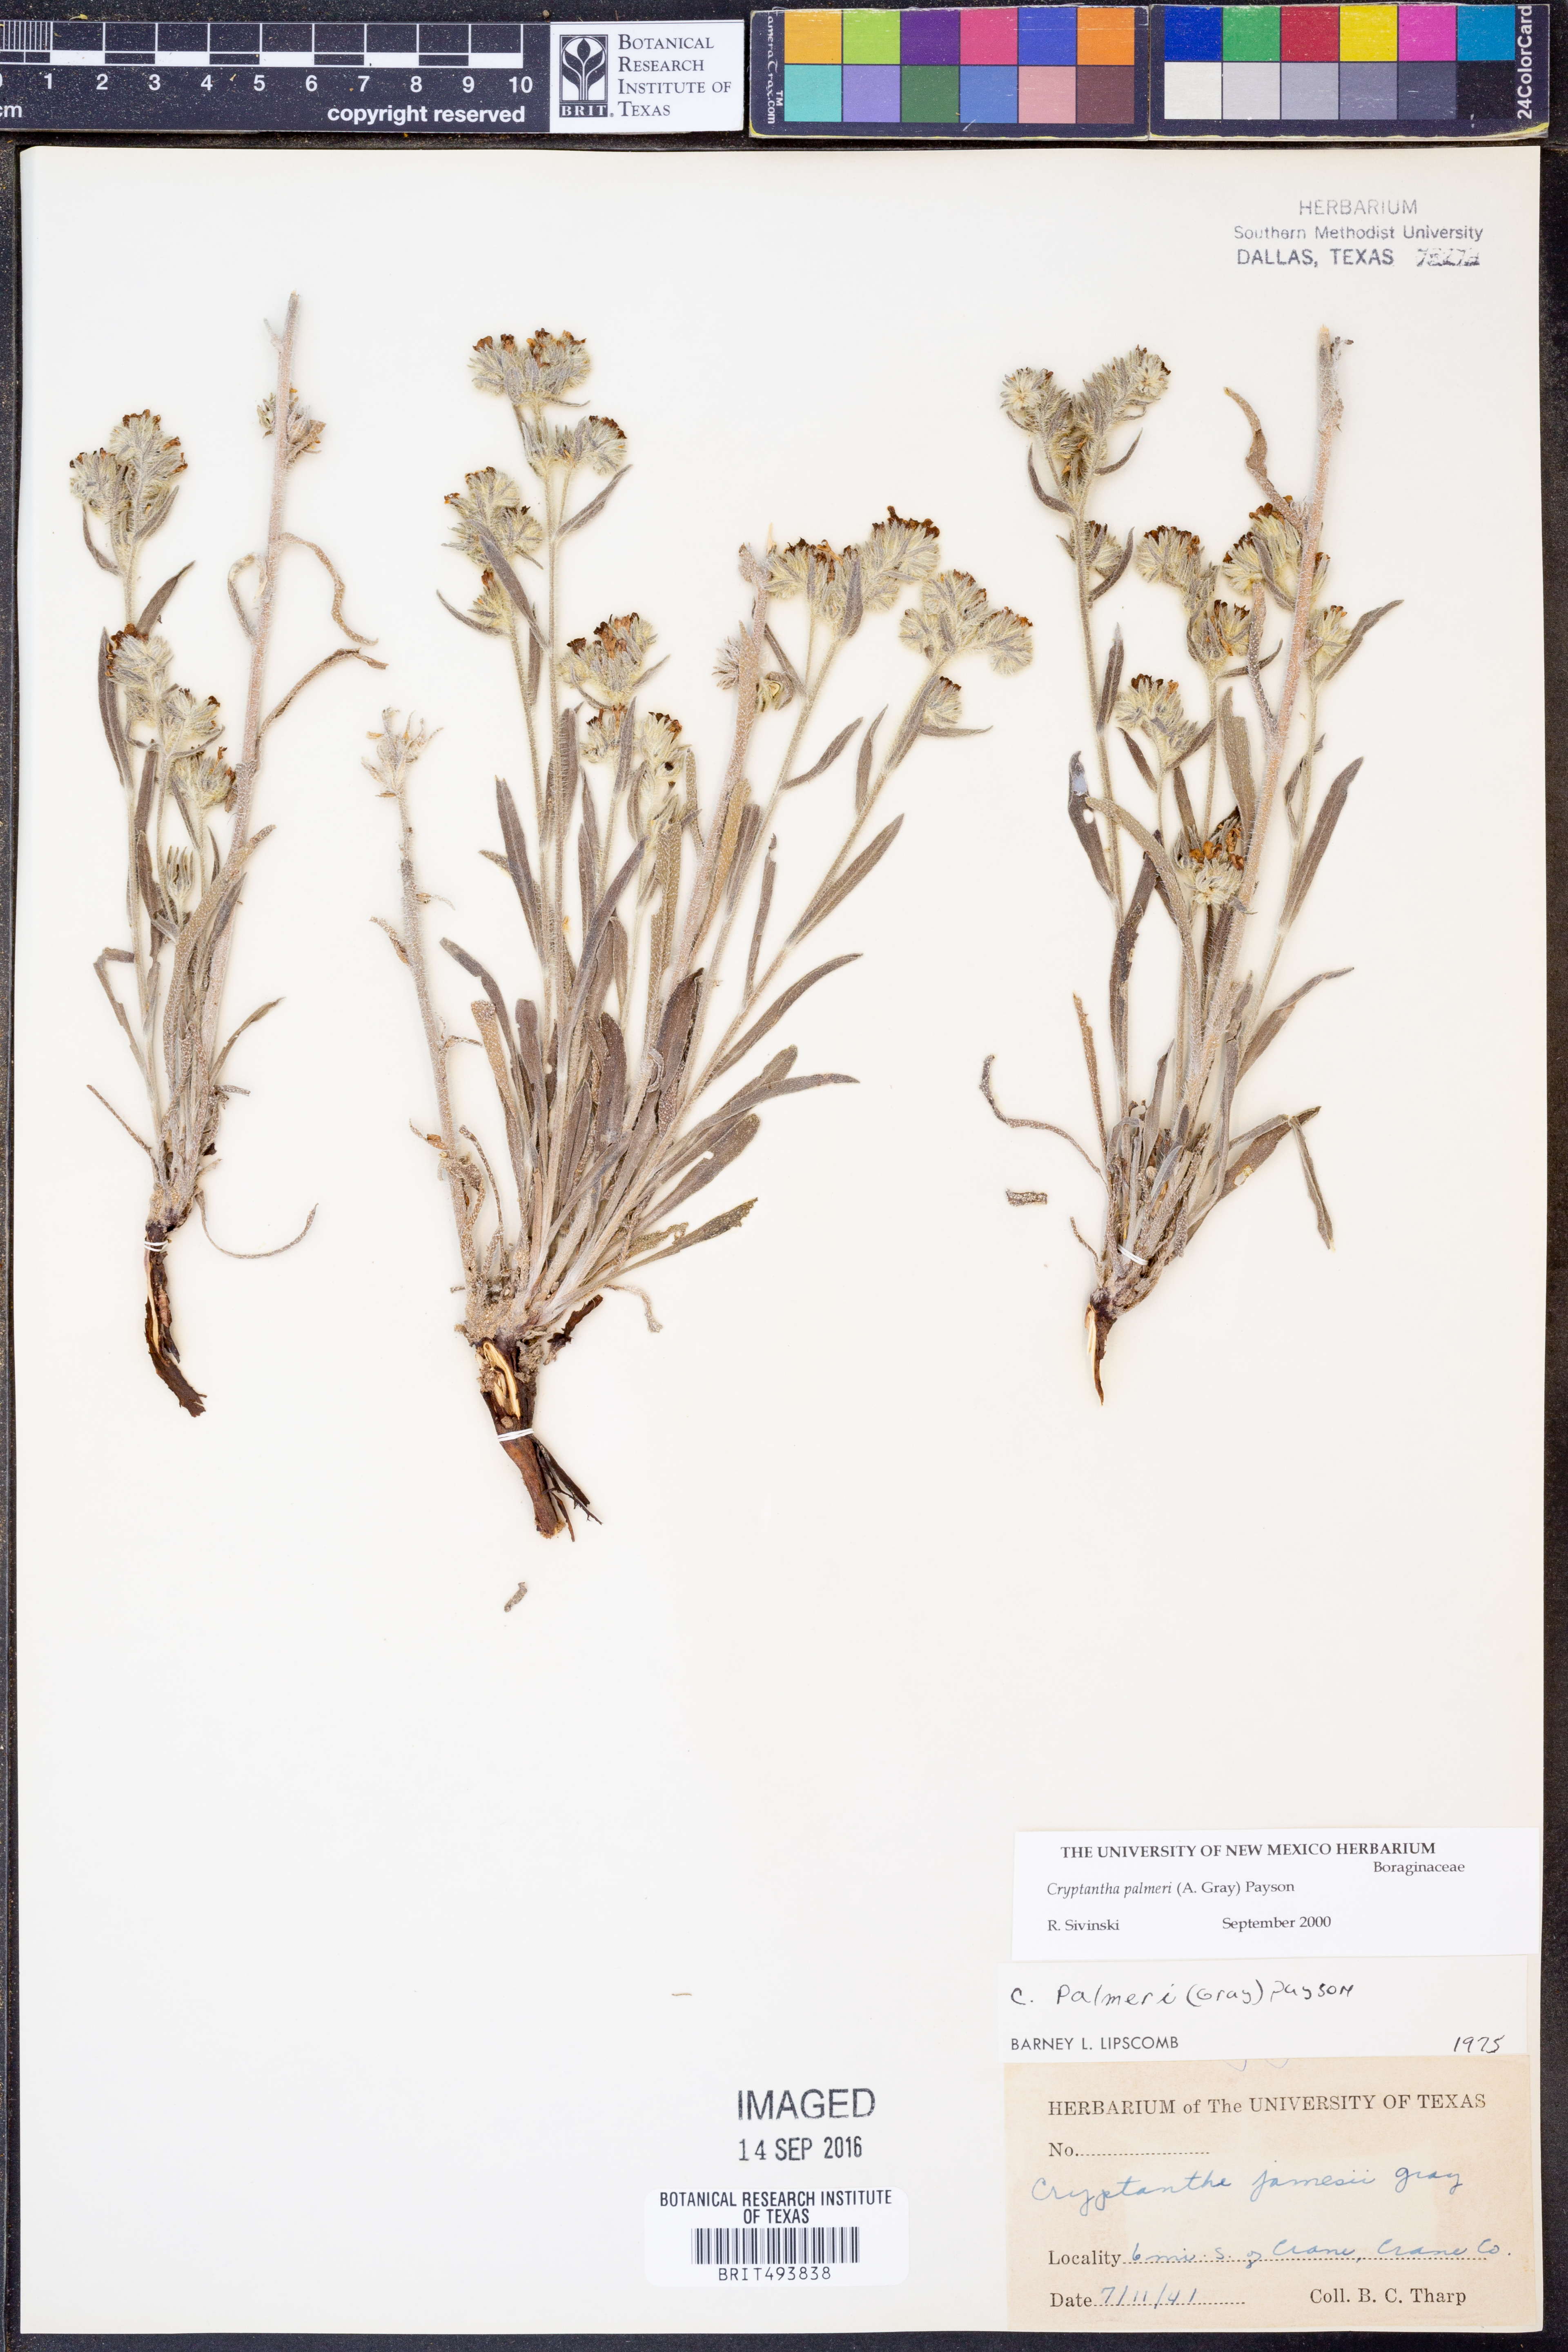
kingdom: Plantae
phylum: Tracheophyta
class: Magnoliopsida
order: Boraginales
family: Boraginaceae
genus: Oreocarya
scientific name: Oreocarya palmeri
